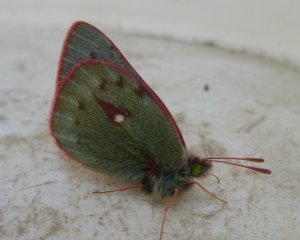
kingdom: Animalia
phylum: Arthropoda
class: Insecta
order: Lepidoptera
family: Pieridae
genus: Colias
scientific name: Colias nastes
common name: Labrador Sulphur
